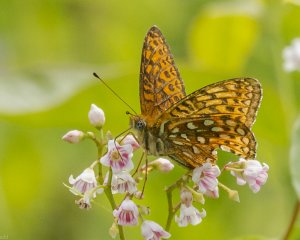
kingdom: Animalia
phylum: Arthropoda
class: Insecta
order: Lepidoptera
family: Nymphalidae
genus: Speyeria
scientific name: Speyeria atlantis
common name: Atlantis Fritillary
